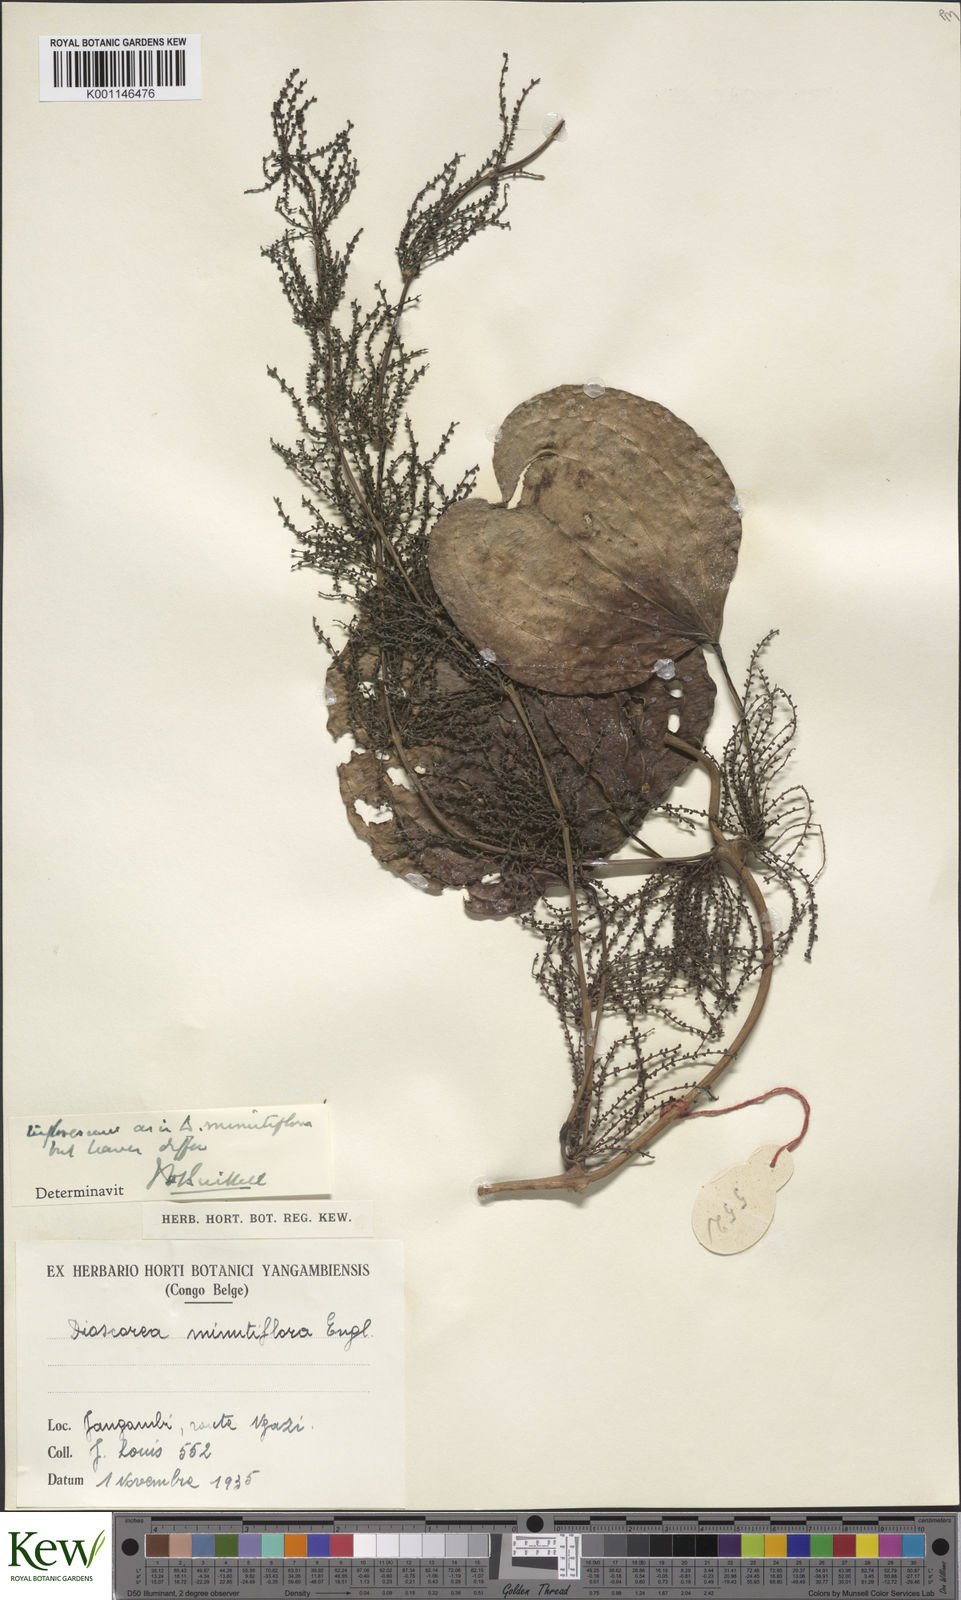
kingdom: Plantae
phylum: Tracheophyta
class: Liliopsida
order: Dioscoreales
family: Dioscoreaceae
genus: Dioscorea
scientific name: Dioscorea minutiflora
